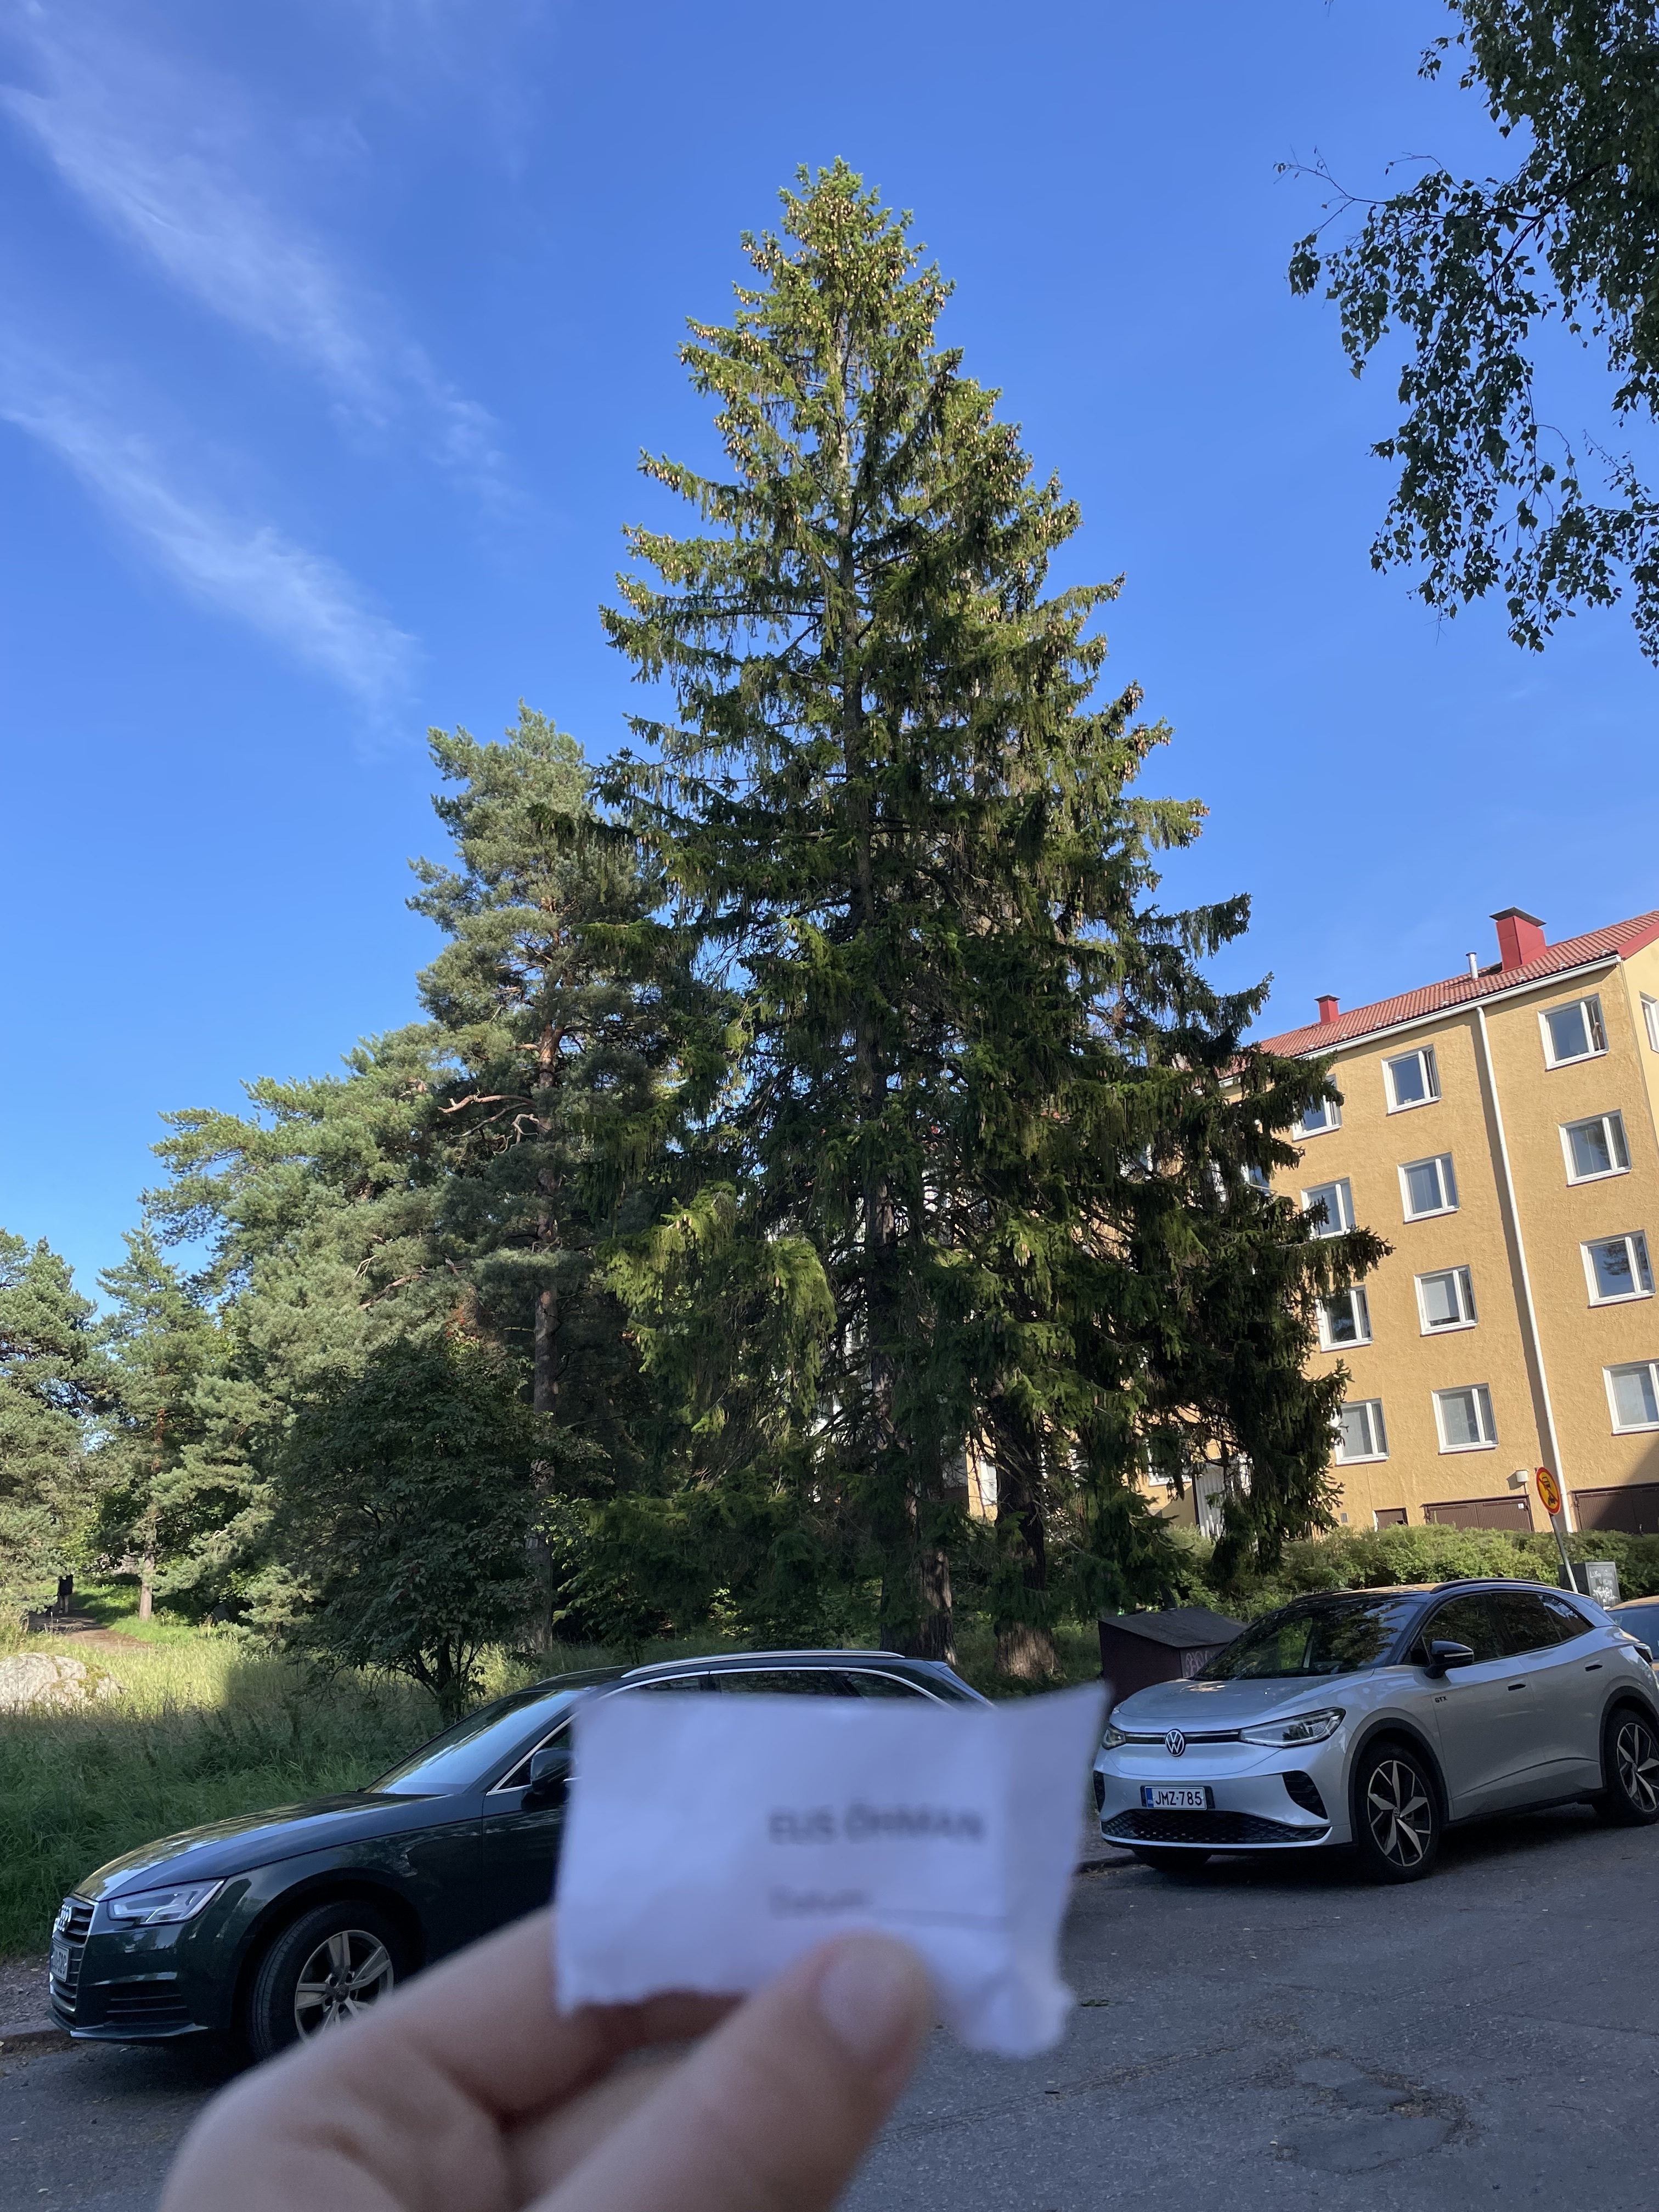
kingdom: Plantae
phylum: Tracheophyta
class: Pinopsida
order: Pinales
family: Pinaceae
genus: Picea
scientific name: Picea abies
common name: Norway spruce
